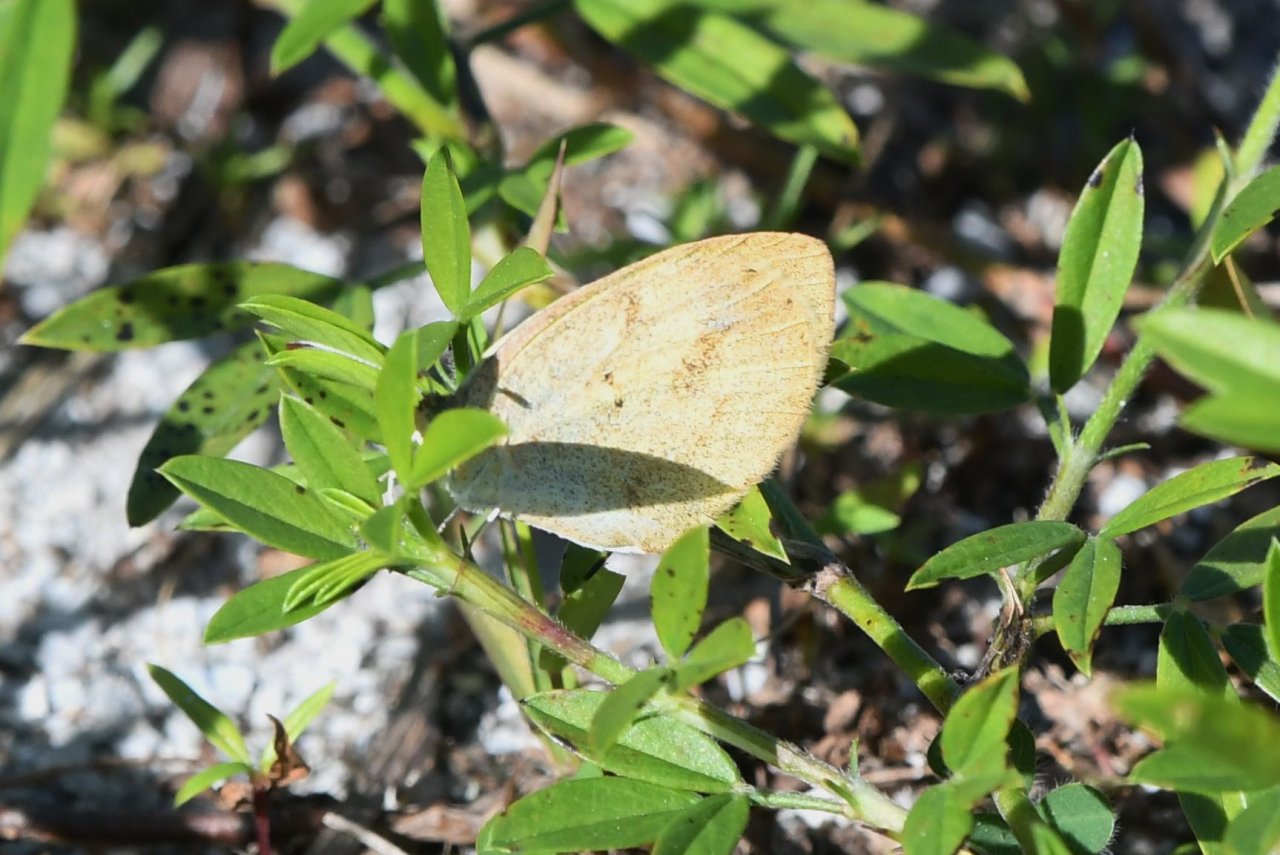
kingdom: Animalia
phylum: Arthropoda
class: Insecta
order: Lepidoptera
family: Pieridae
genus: Eurema
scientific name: Eurema daira
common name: Barred Yellow
